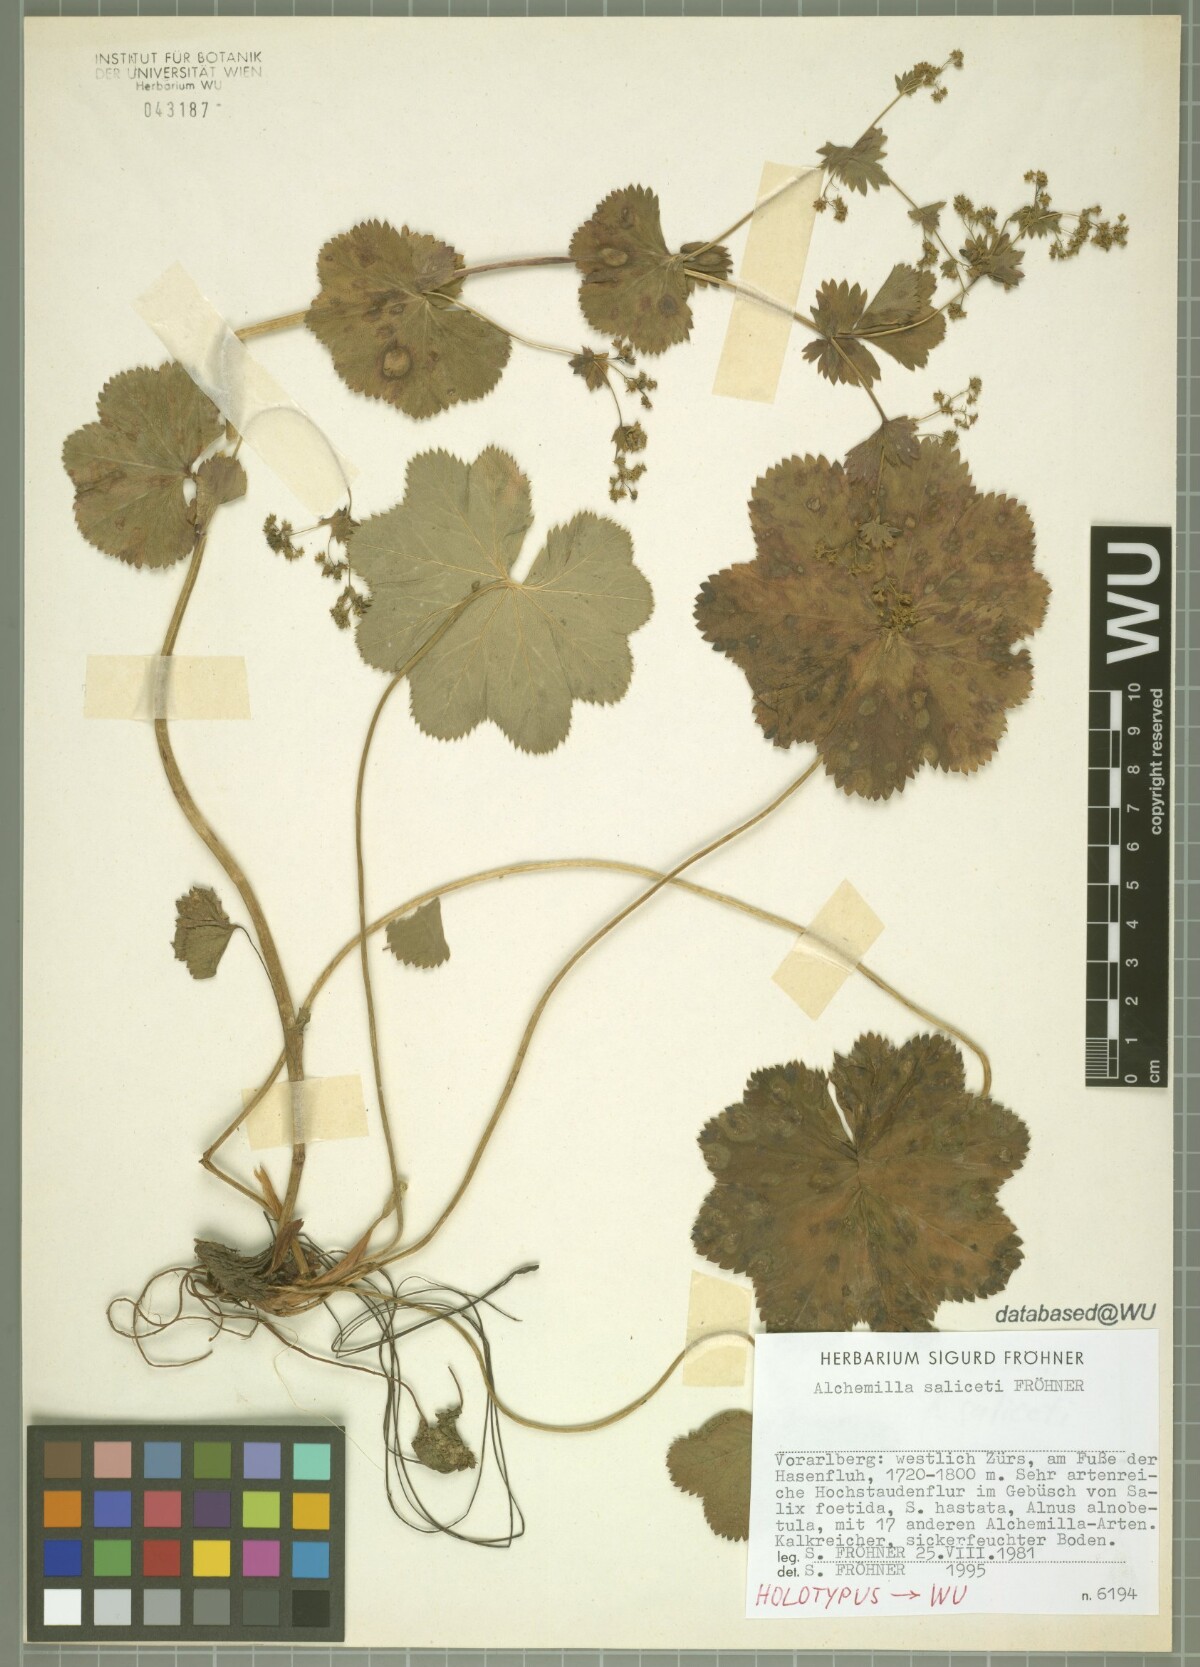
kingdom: Plantae
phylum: Tracheophyta
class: Magnoliopsida
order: Rosales
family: Rosaceae
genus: Alchemilla
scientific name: Alchemilla saliceti
